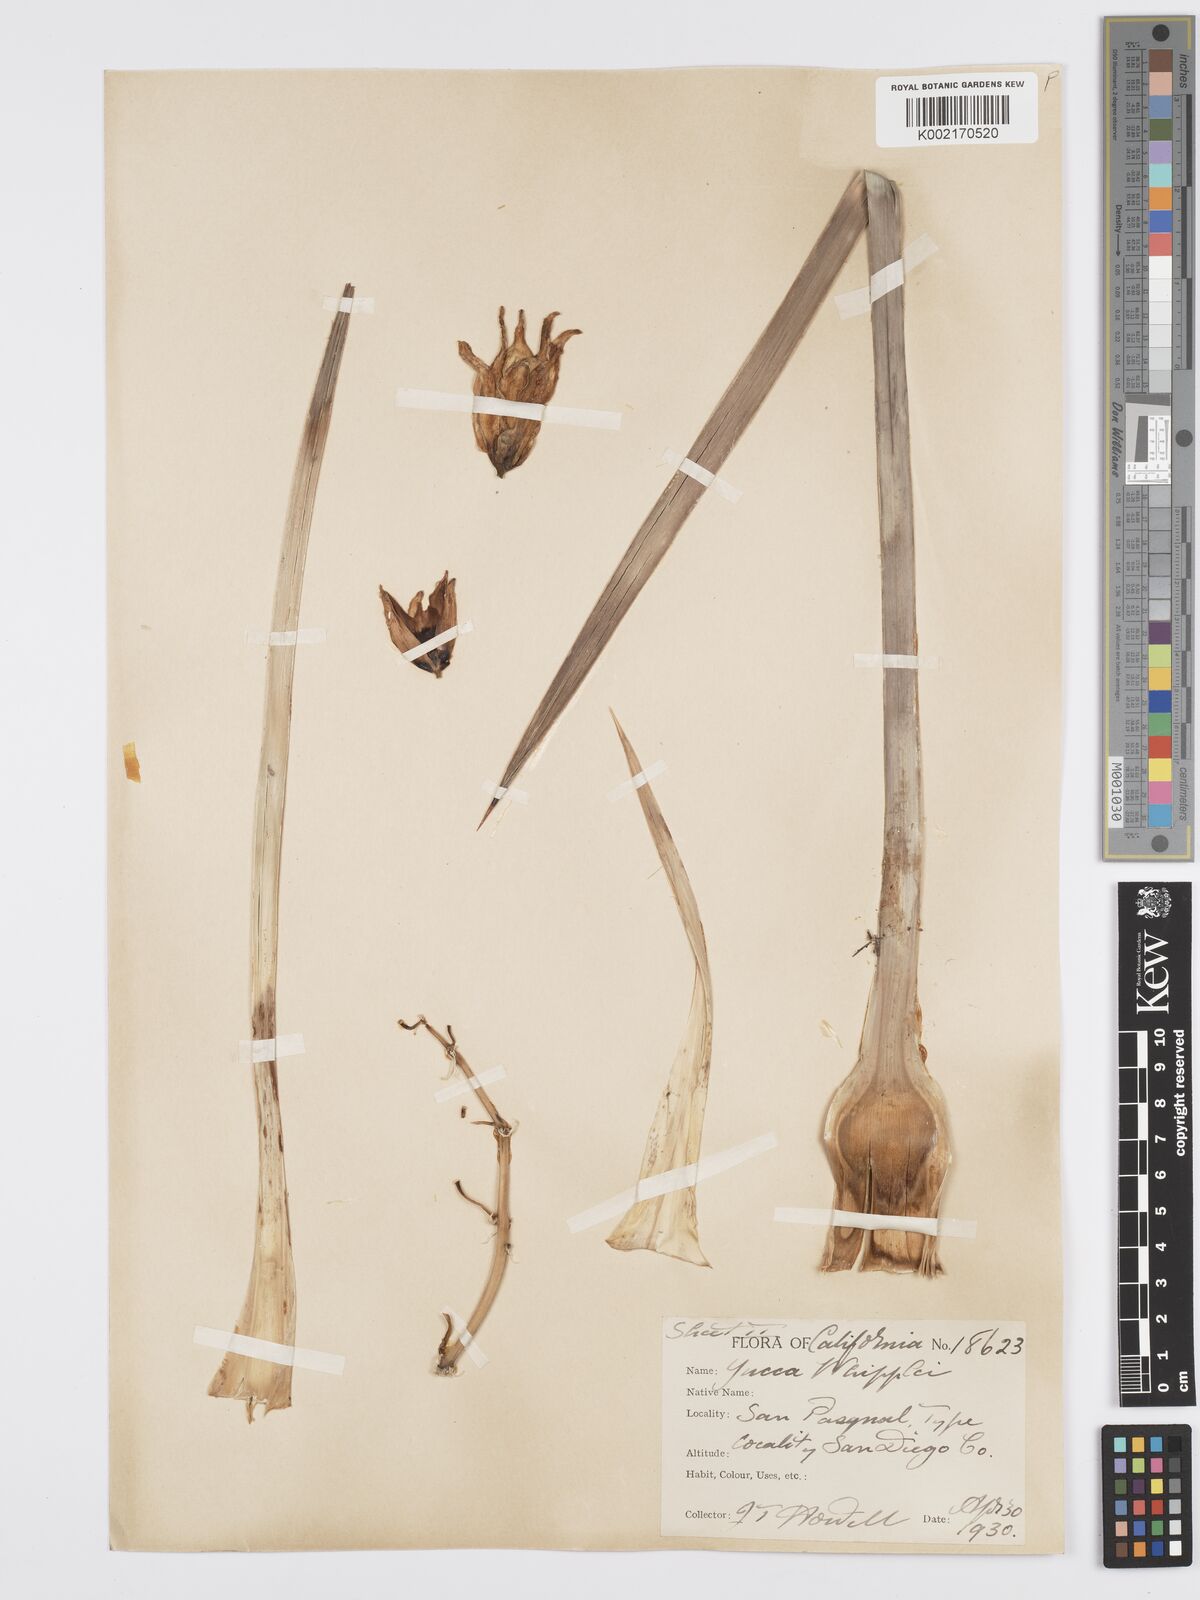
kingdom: Plantae
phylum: Tracheophyta
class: Liliopsida
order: Asparagales
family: Asparagaceae
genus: Hesperoyucca
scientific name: Hesperoyucca whipplei
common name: Our lord's-candle
